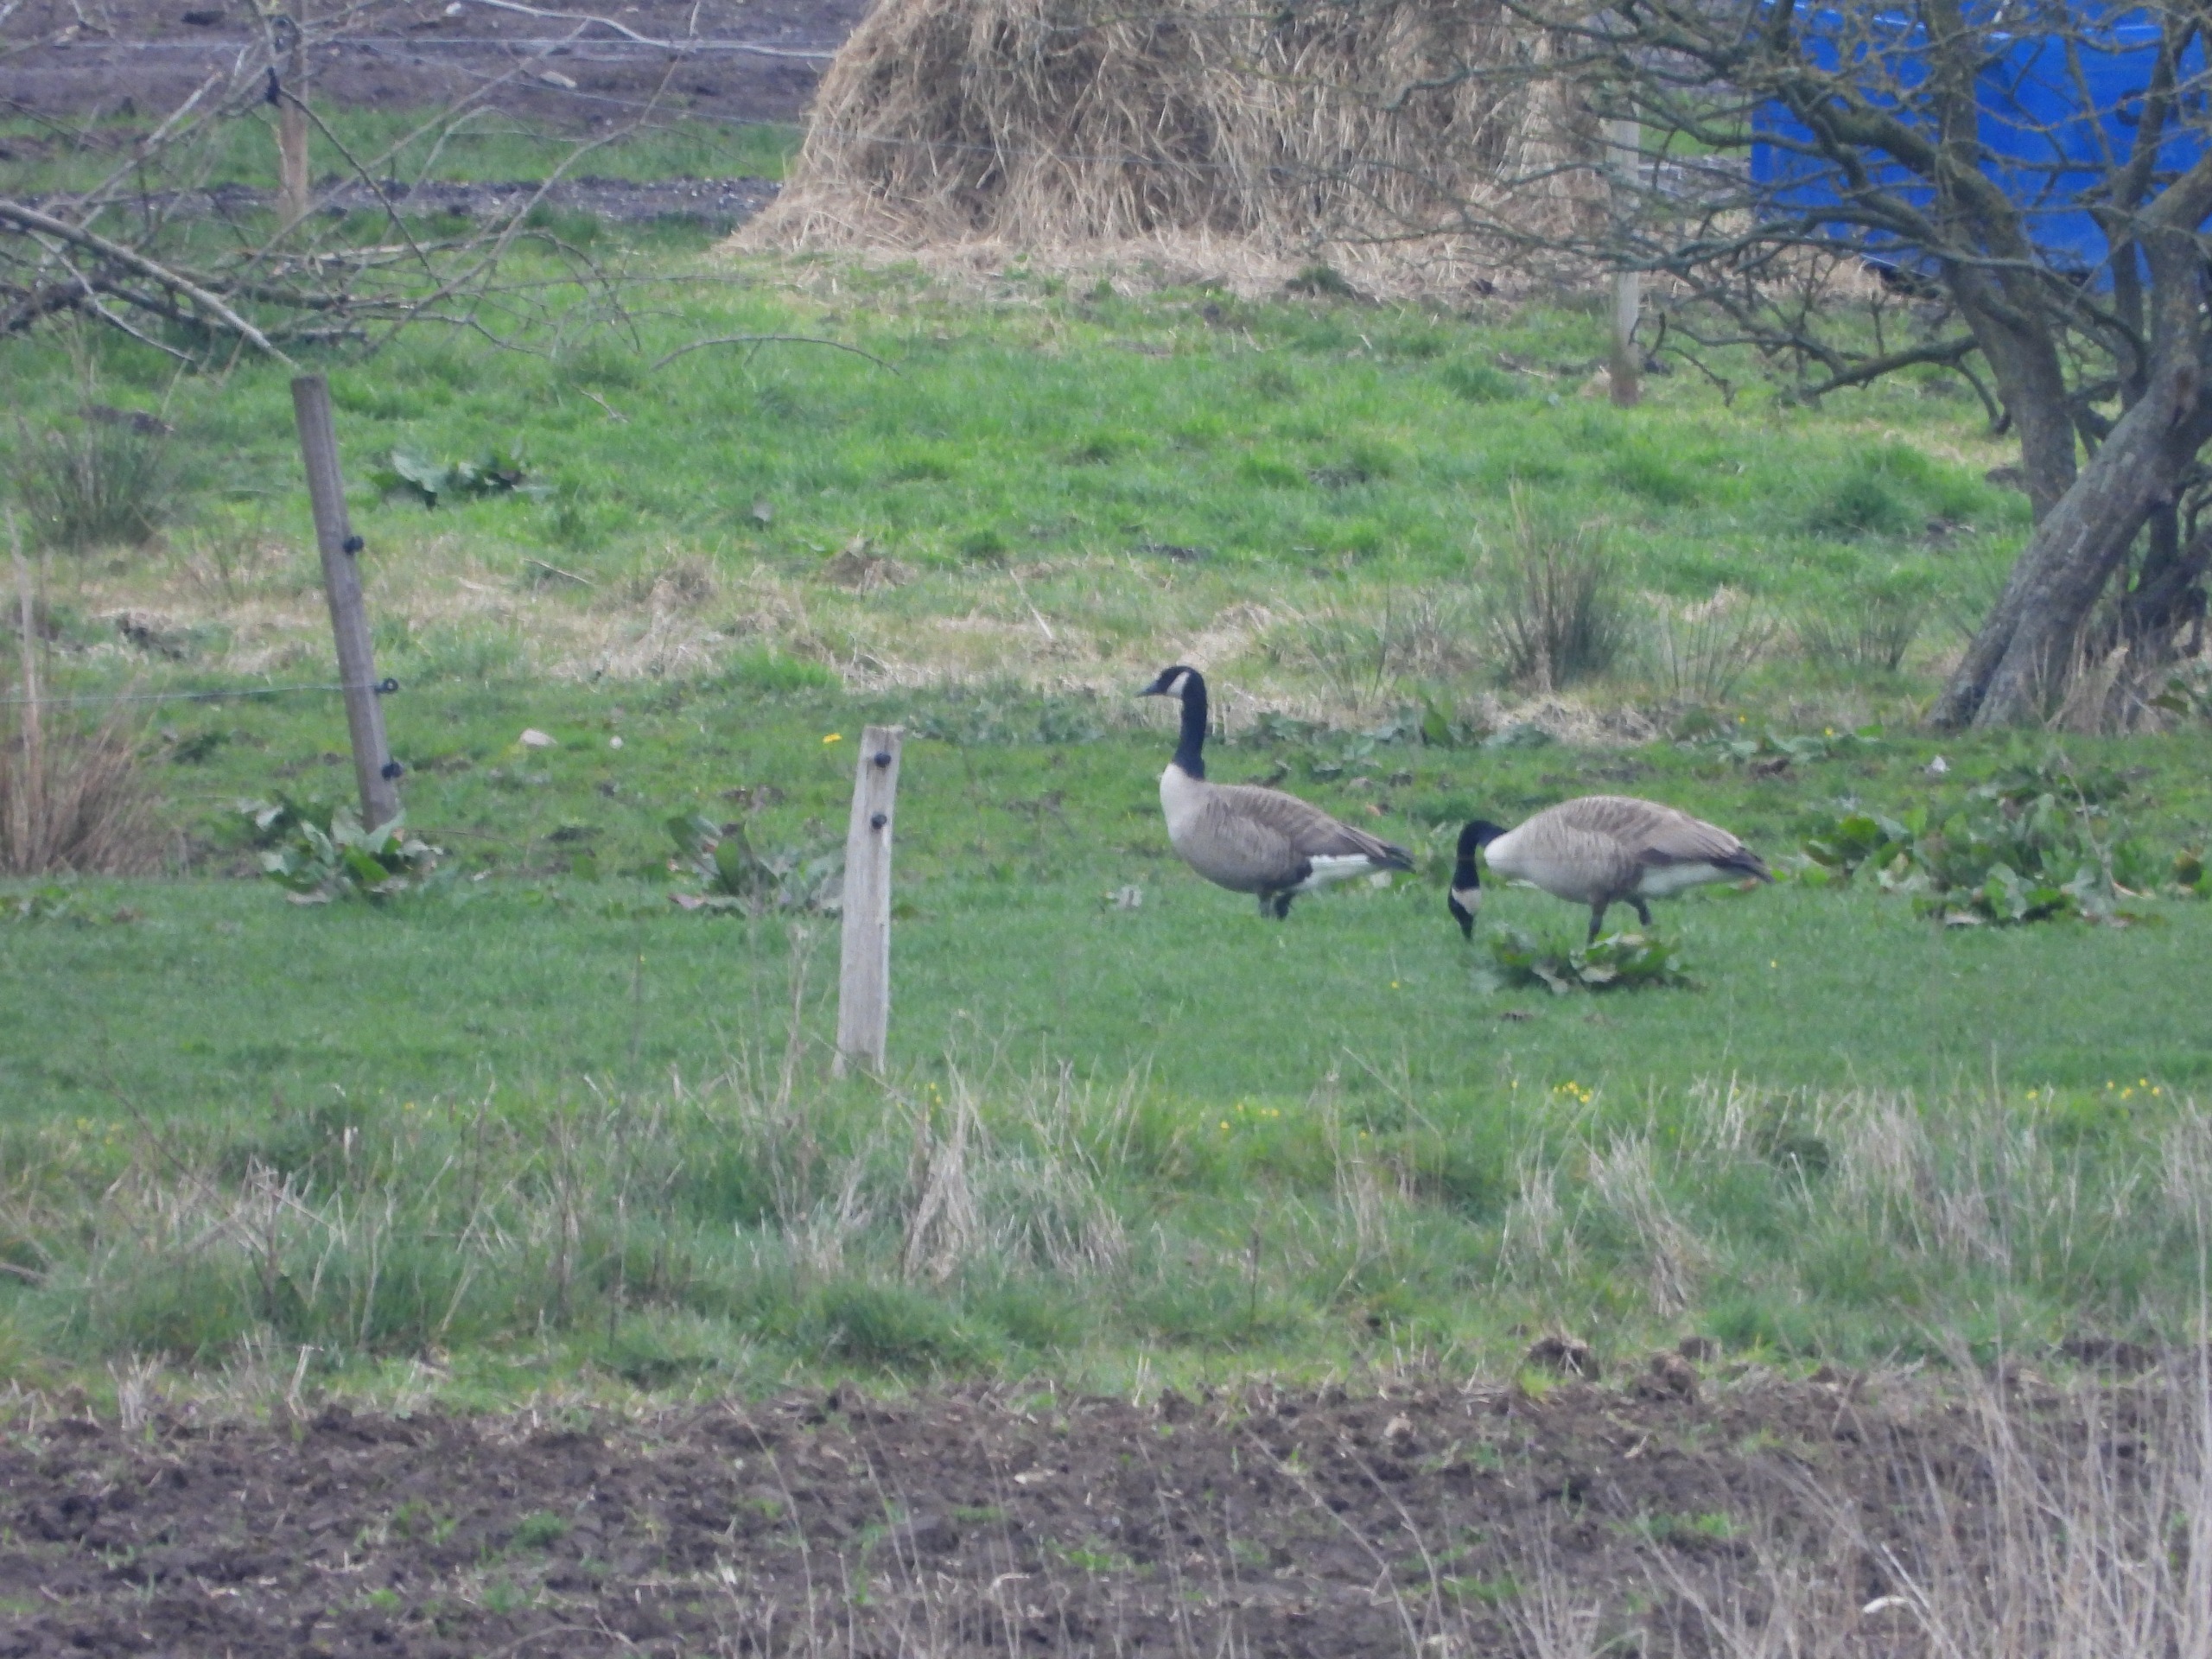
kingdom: Animalia
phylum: Chordata
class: Aves
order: Anseriformes
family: Anatidae
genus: Branta
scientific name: Branta canadensis
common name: Canadagås
